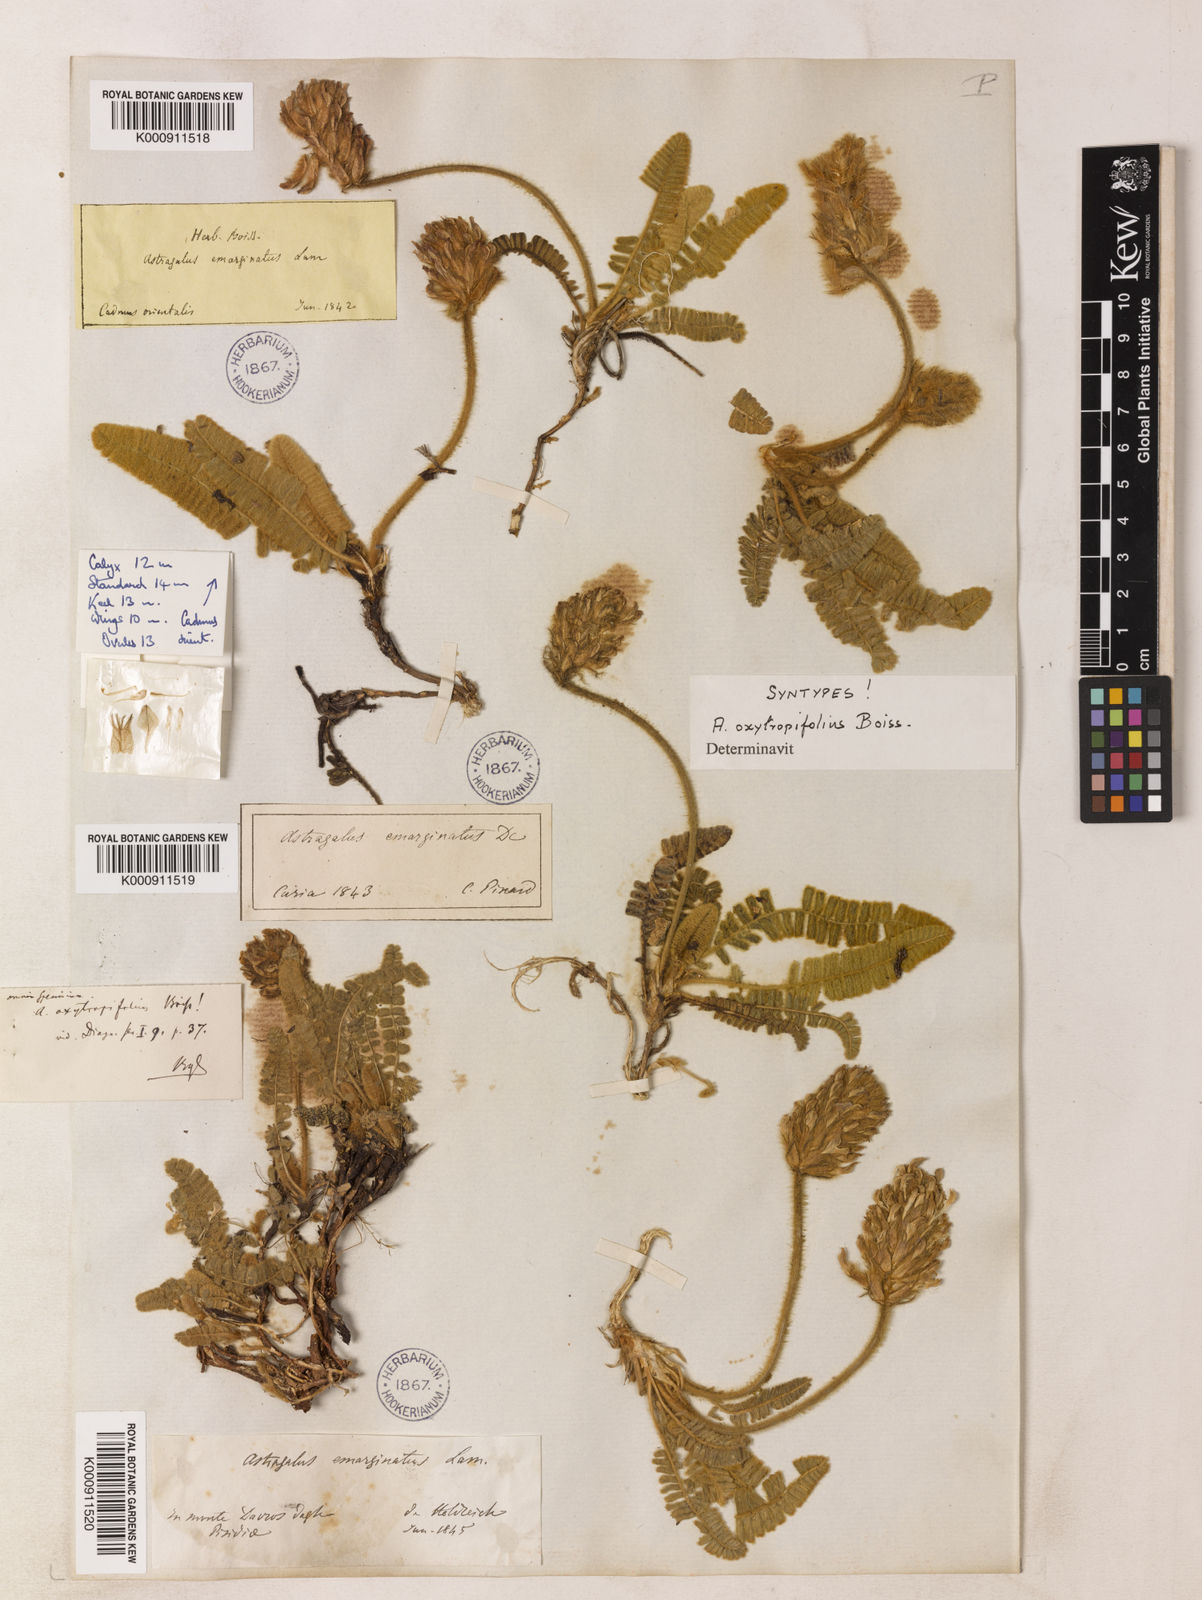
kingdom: Plantae
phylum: Tracheophyta
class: Magnoliopsida
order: Fabales
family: Fabaceae
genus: Astragalus
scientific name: Astragalus oxytropifolius
